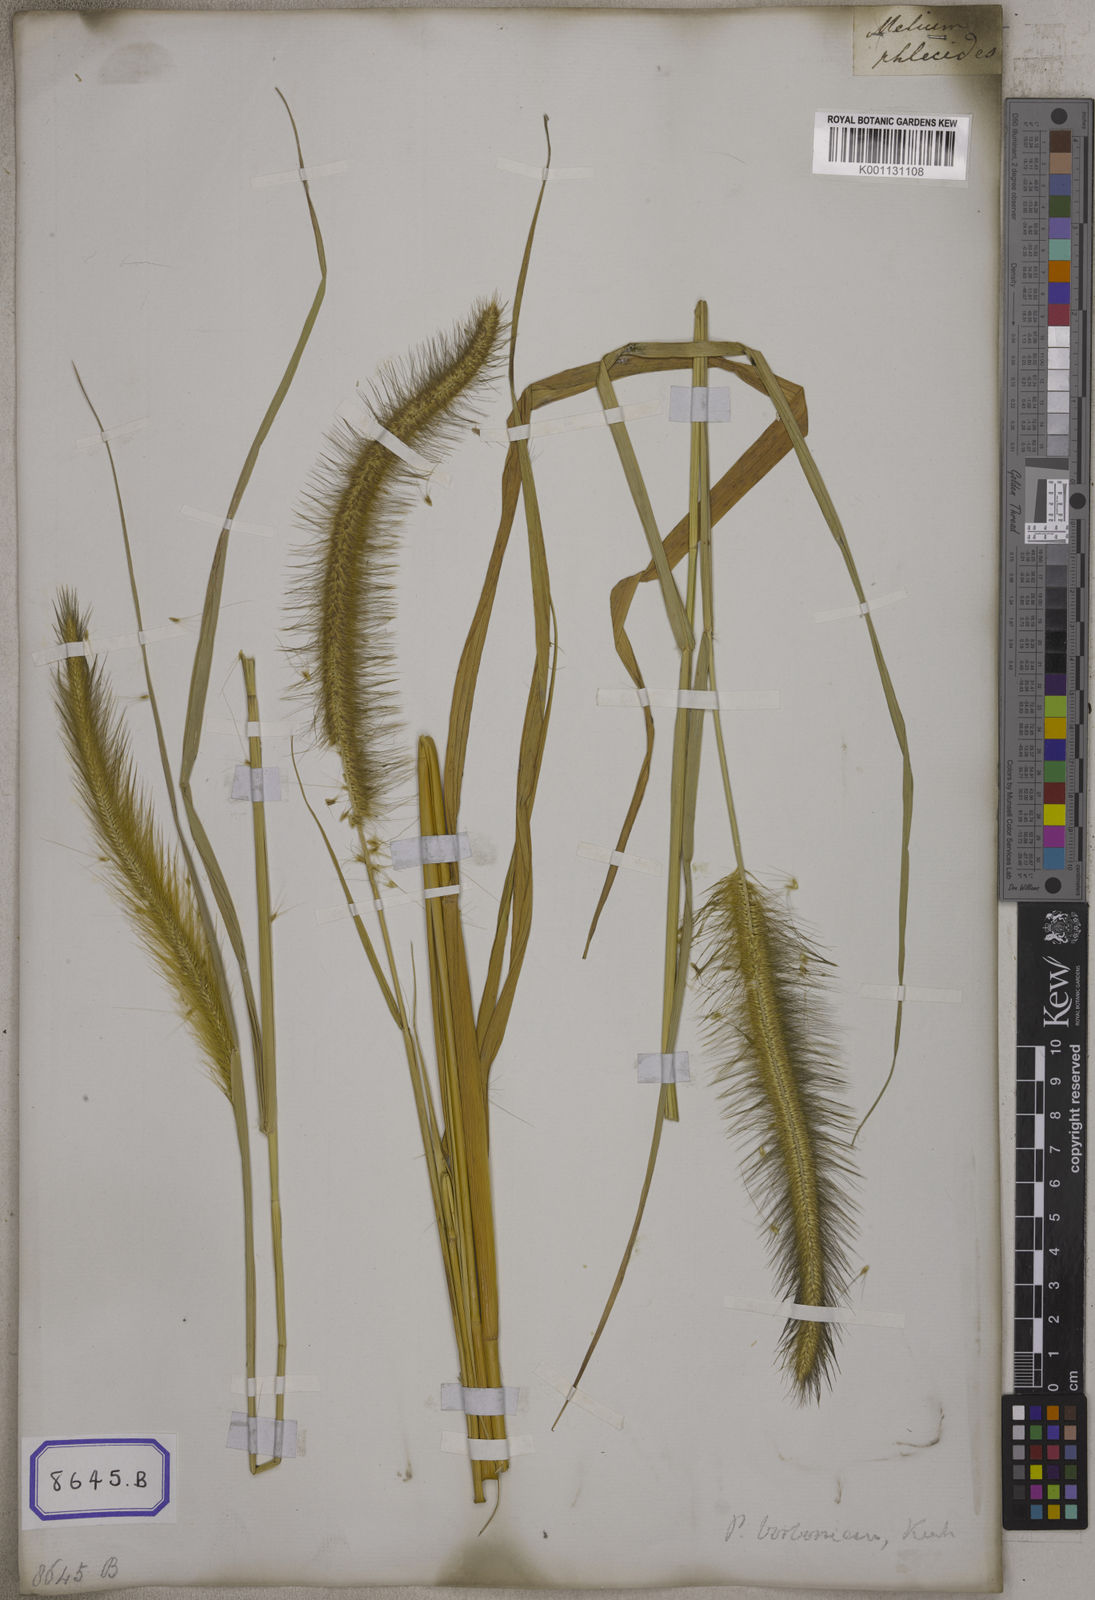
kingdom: Plantae
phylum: Tracheophyta
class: Liliopsida
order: Poales
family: Poaceae
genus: Cenchrus
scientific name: Cenchrus Pennisetum spec
